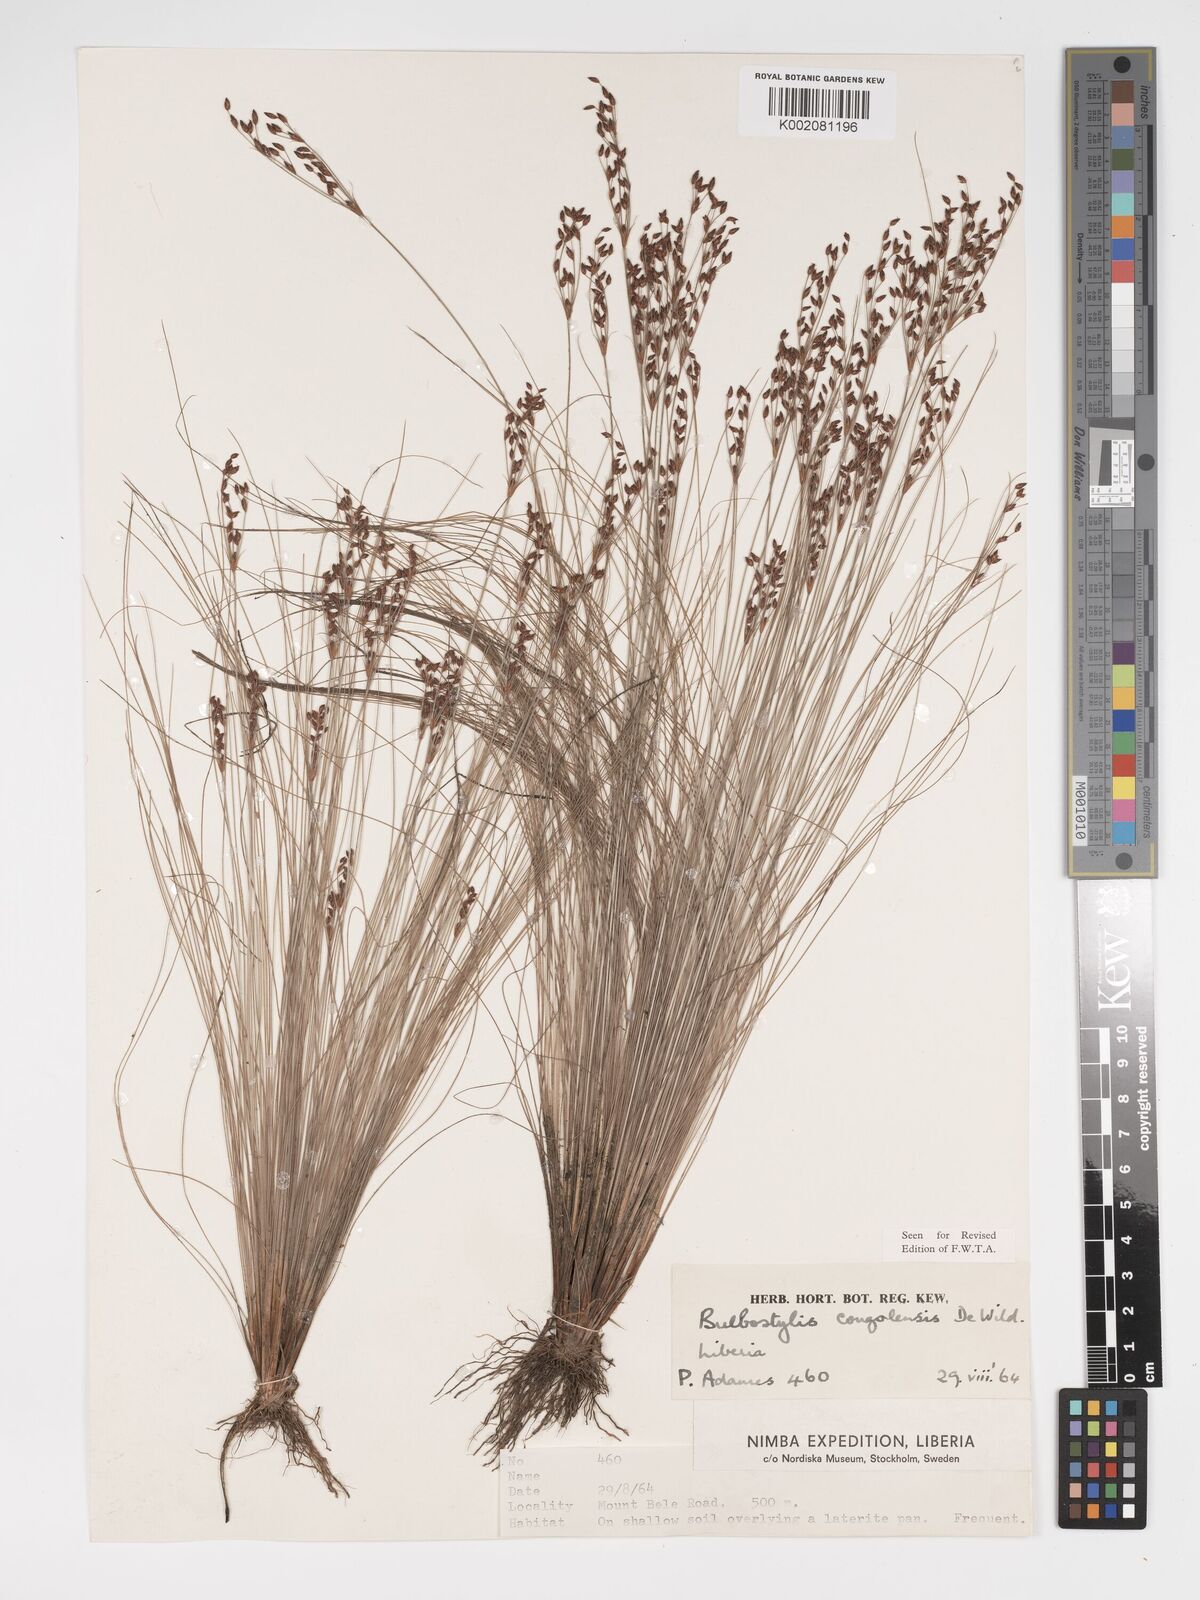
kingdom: Plantae
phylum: Tracheophyta
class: Liliopsida
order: Poales
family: Cyperaceae
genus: Bulbostylis
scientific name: Bulbostylis congolensis
